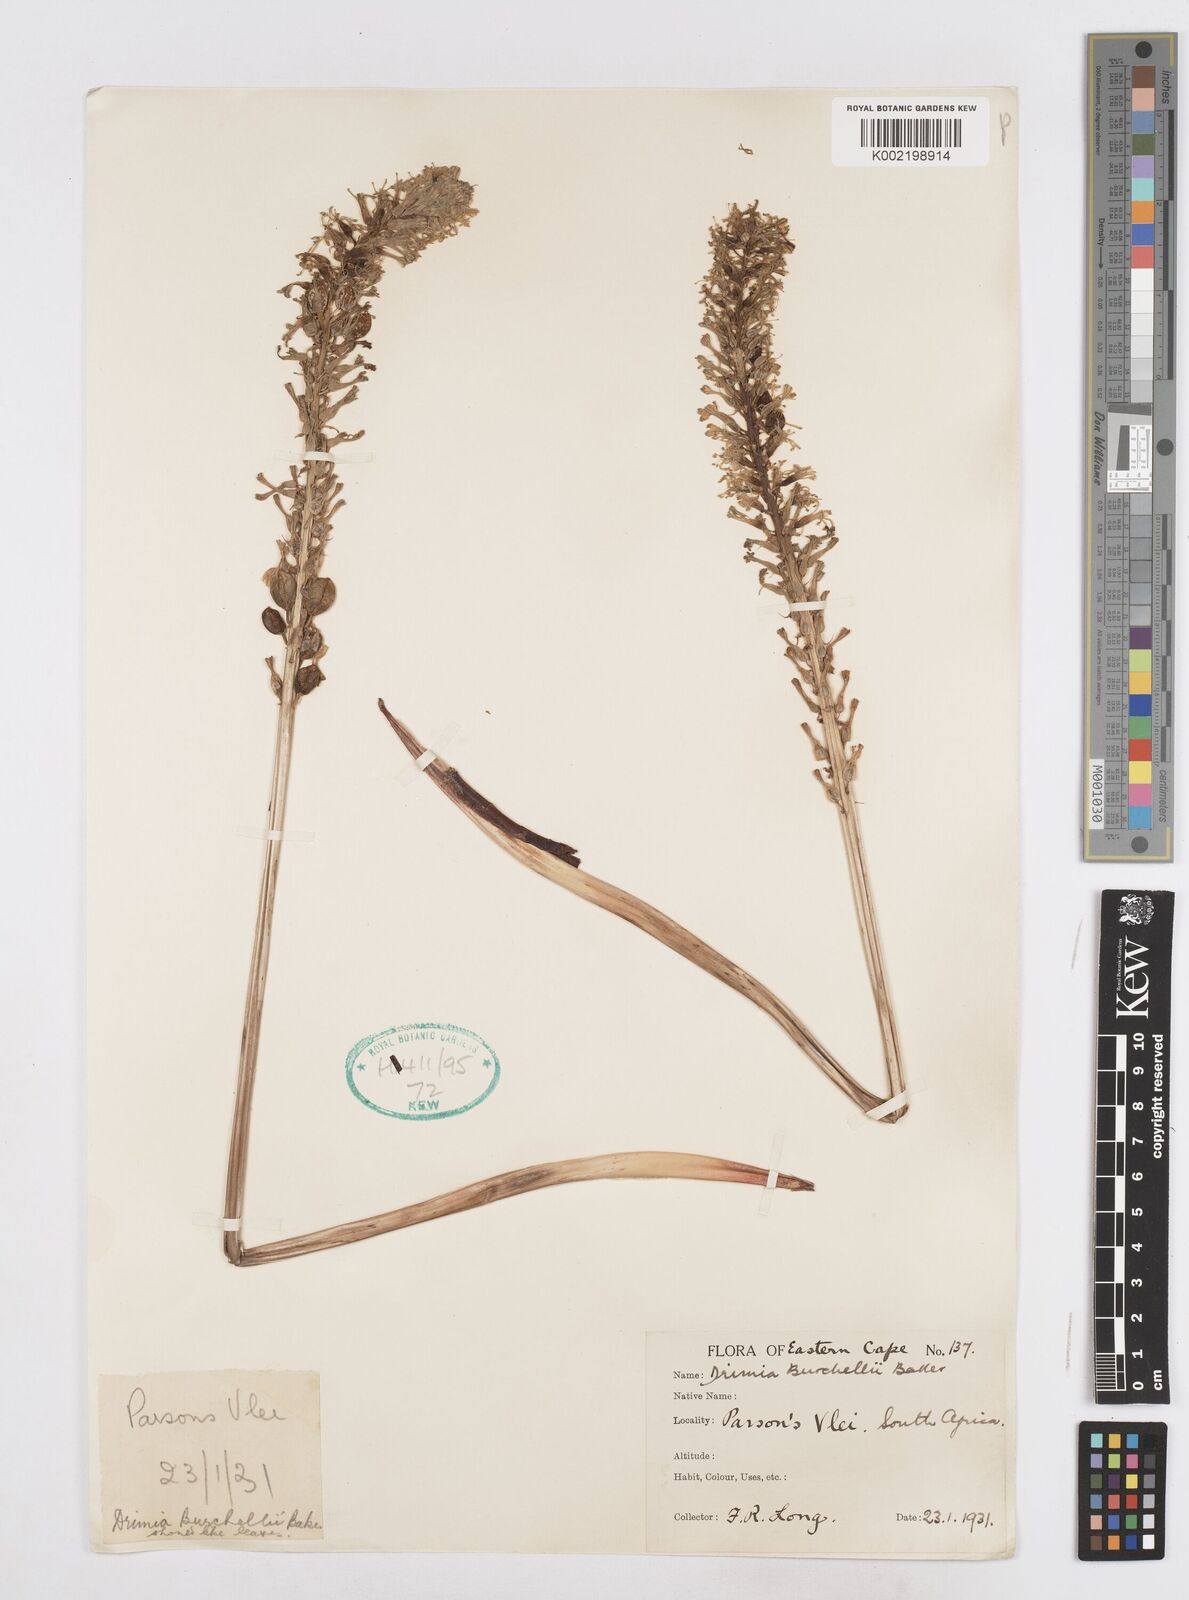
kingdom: Plantae
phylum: Tracheophyta
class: Liliopsida
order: Asparagales
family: Asparagaceae
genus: Drimia
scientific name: Drimia elata
